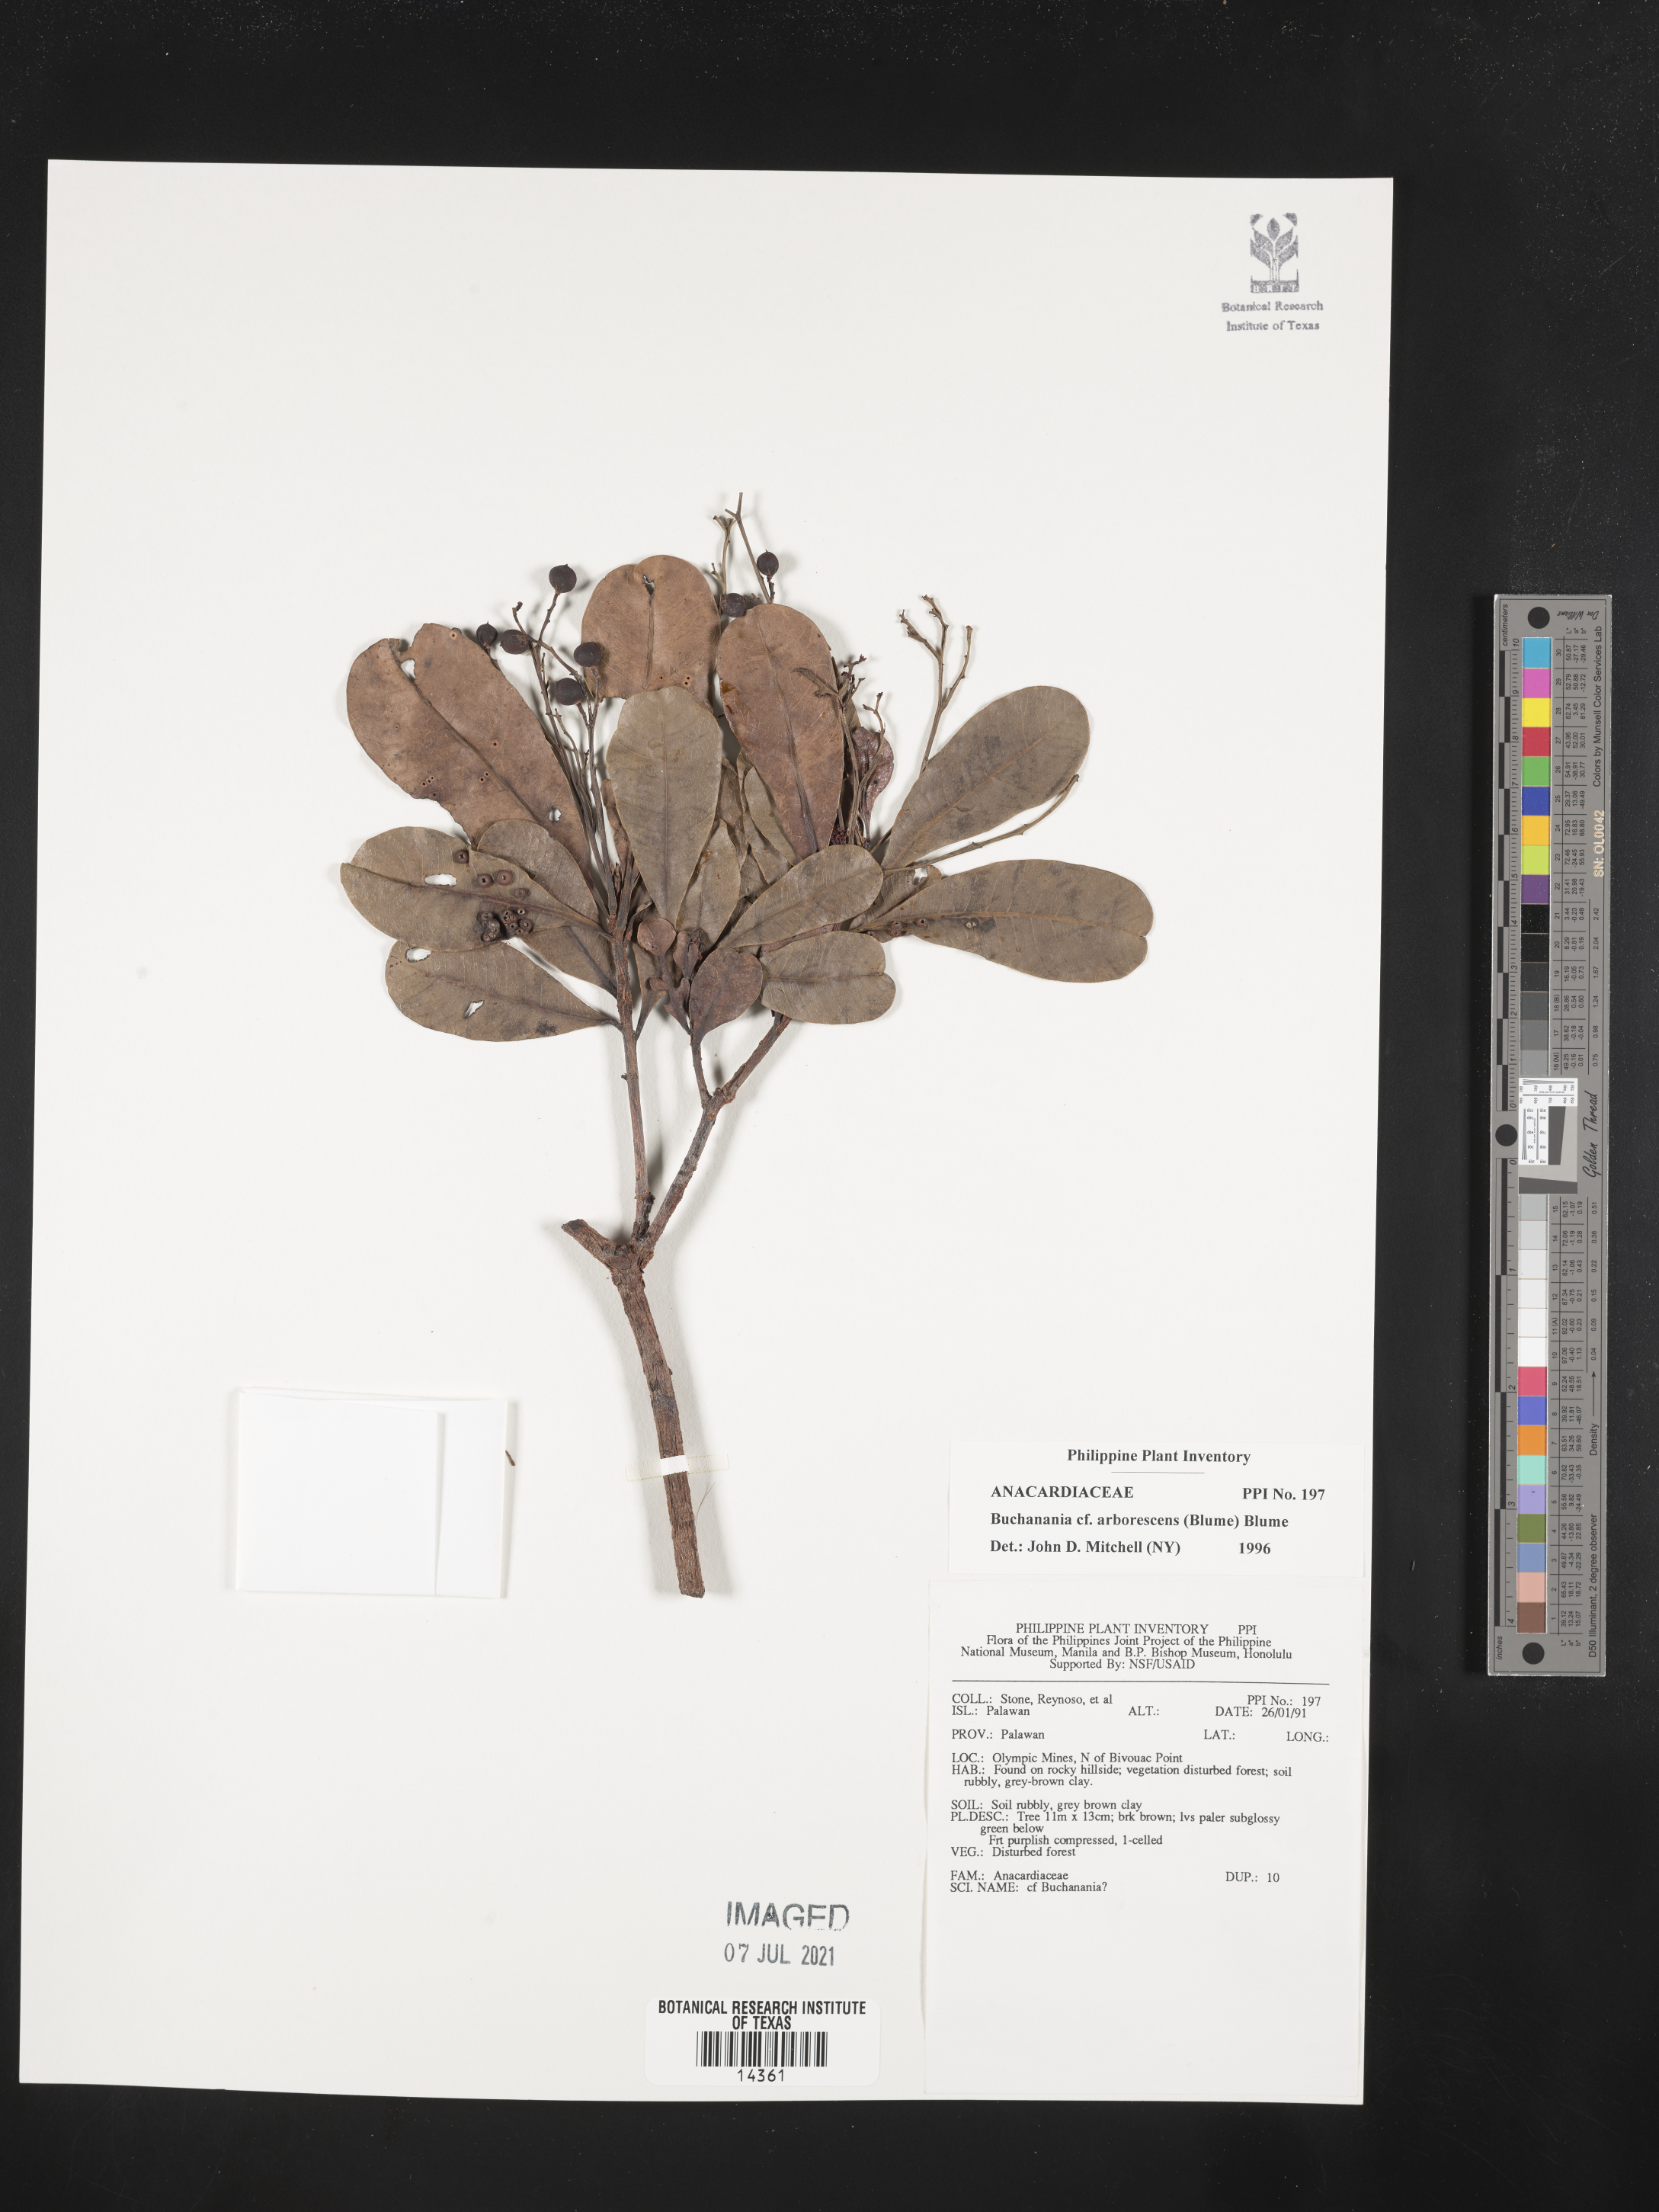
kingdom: Plantae
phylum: Tracheophyta
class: Magnoliopsida
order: Sapindales
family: Anacardiaceae
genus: Buchanania
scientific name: Buchanania arborescens
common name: Sparrow’s mango
